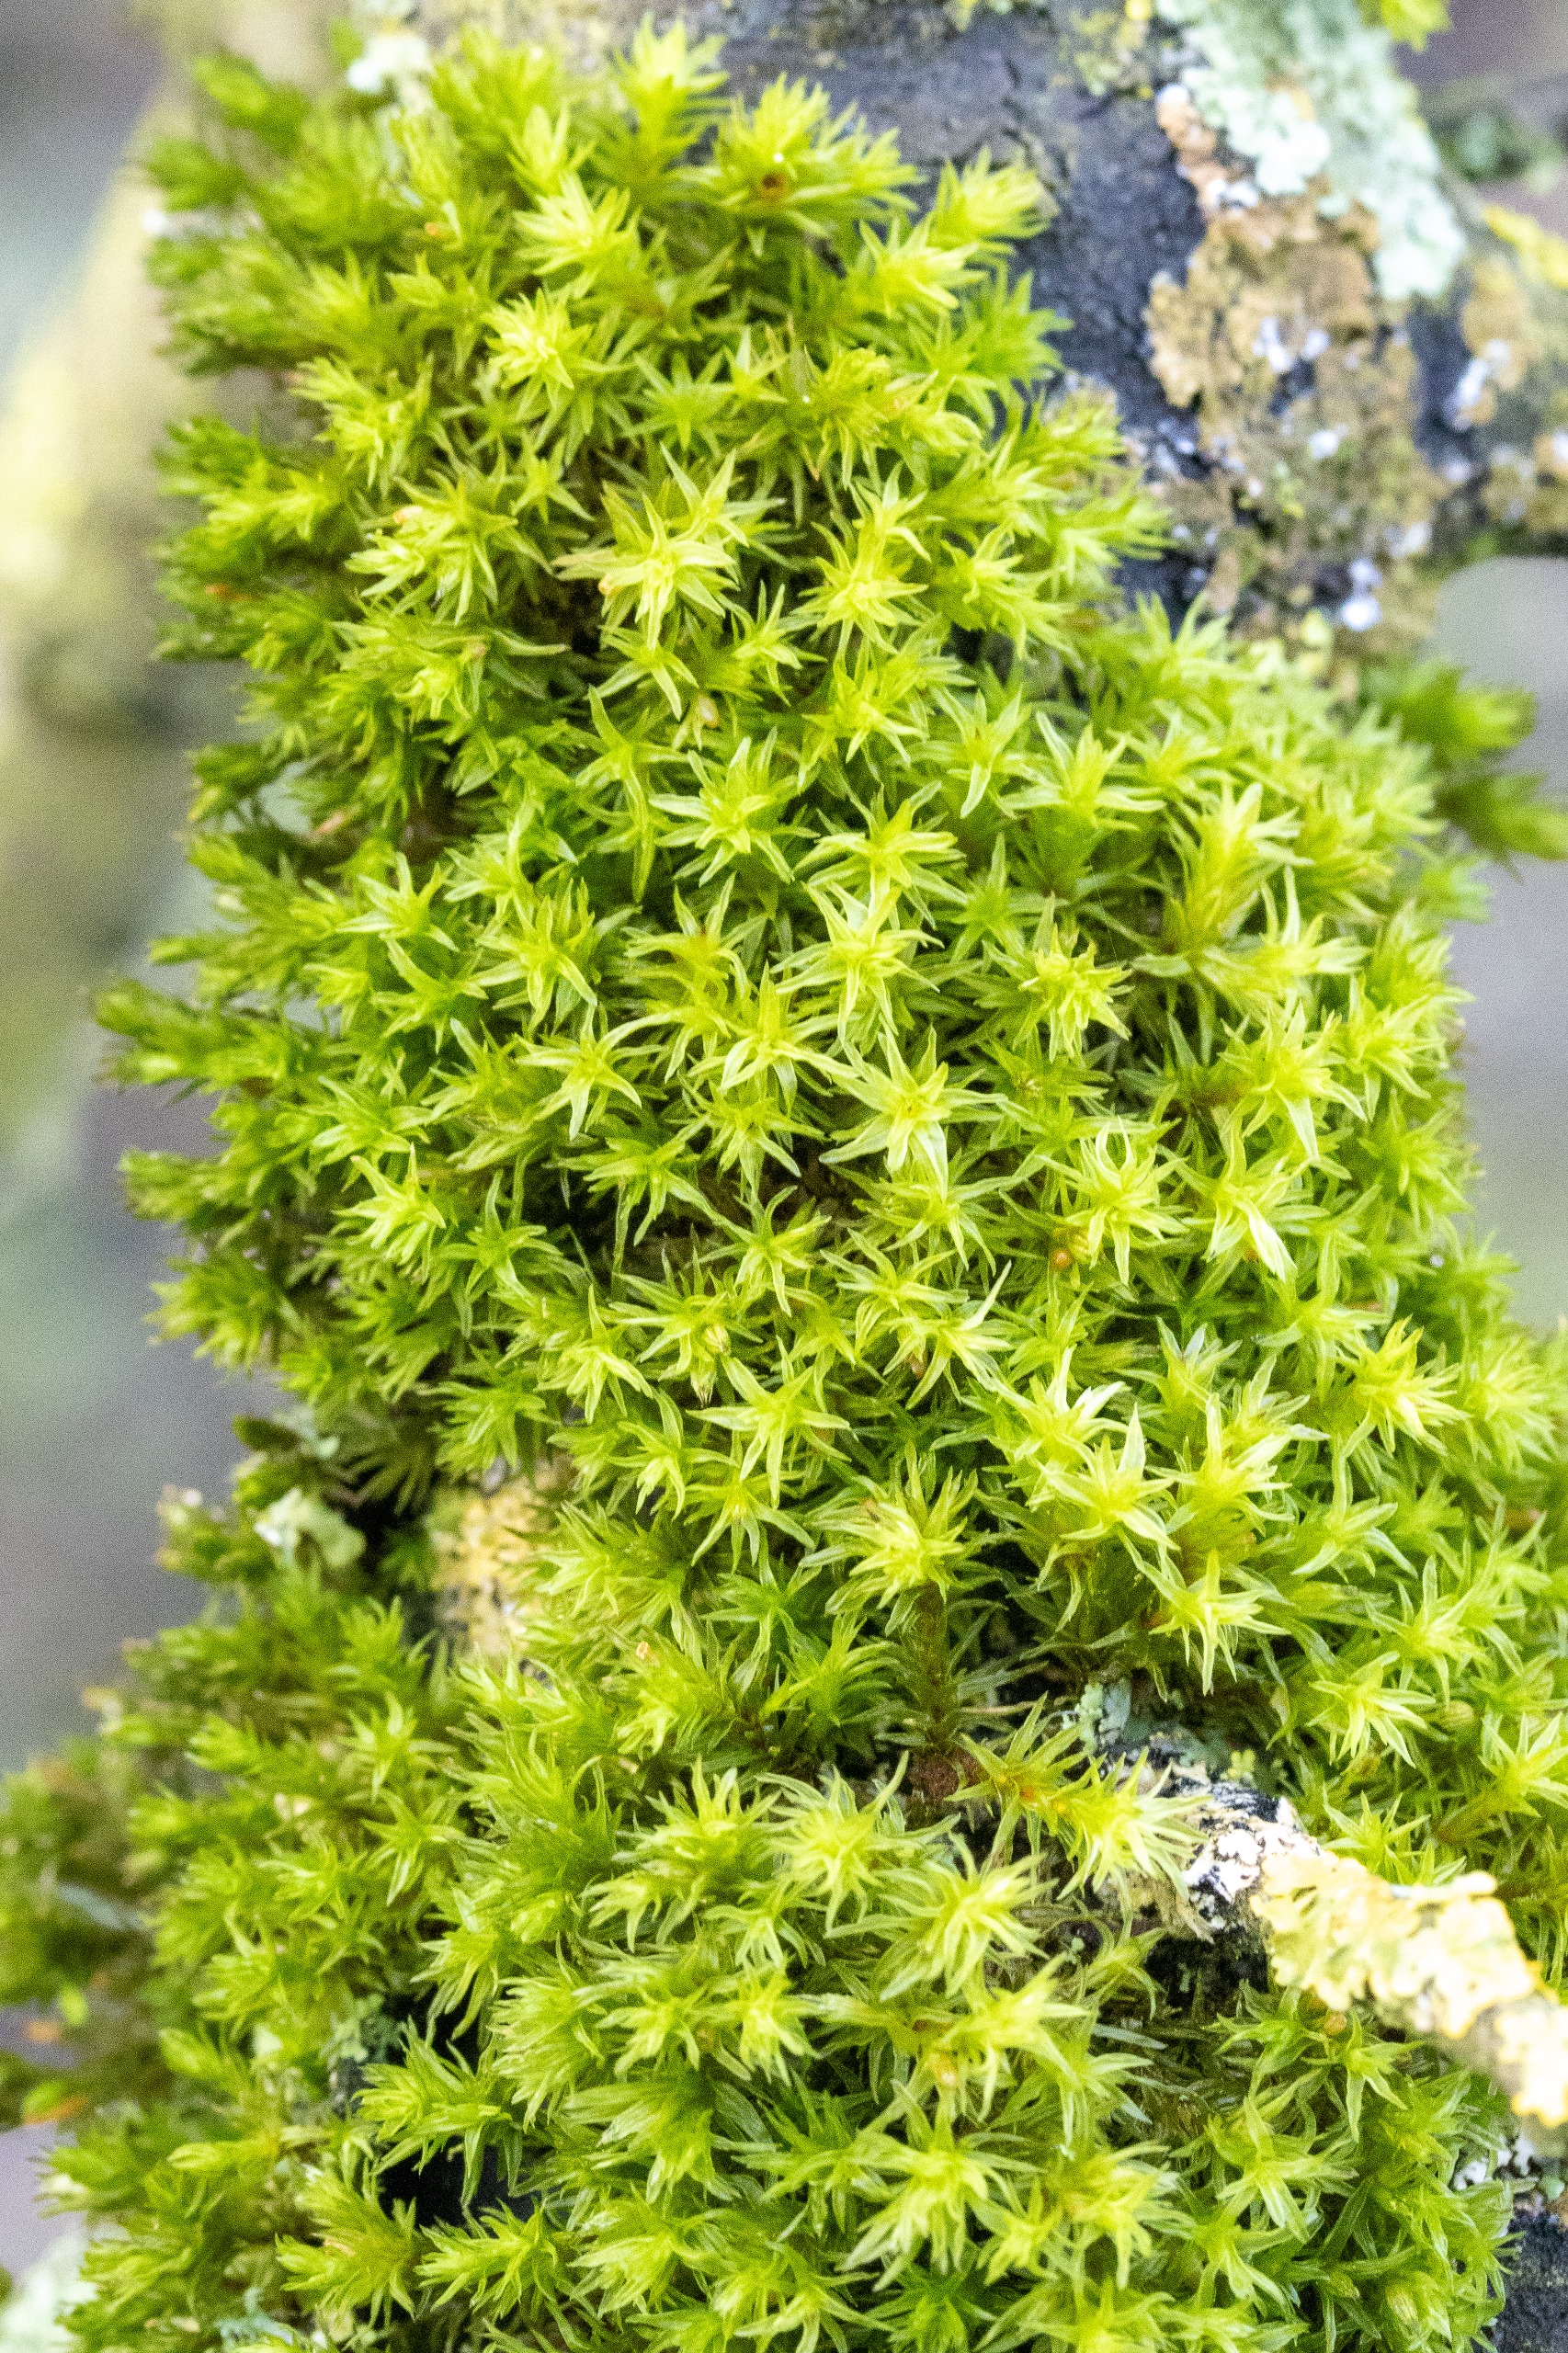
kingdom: Plantae
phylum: Bryophyta
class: Bryopsida
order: Orthotrichales
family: Orthotrichaceae
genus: Orthotrichum
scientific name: Orthotrichum
